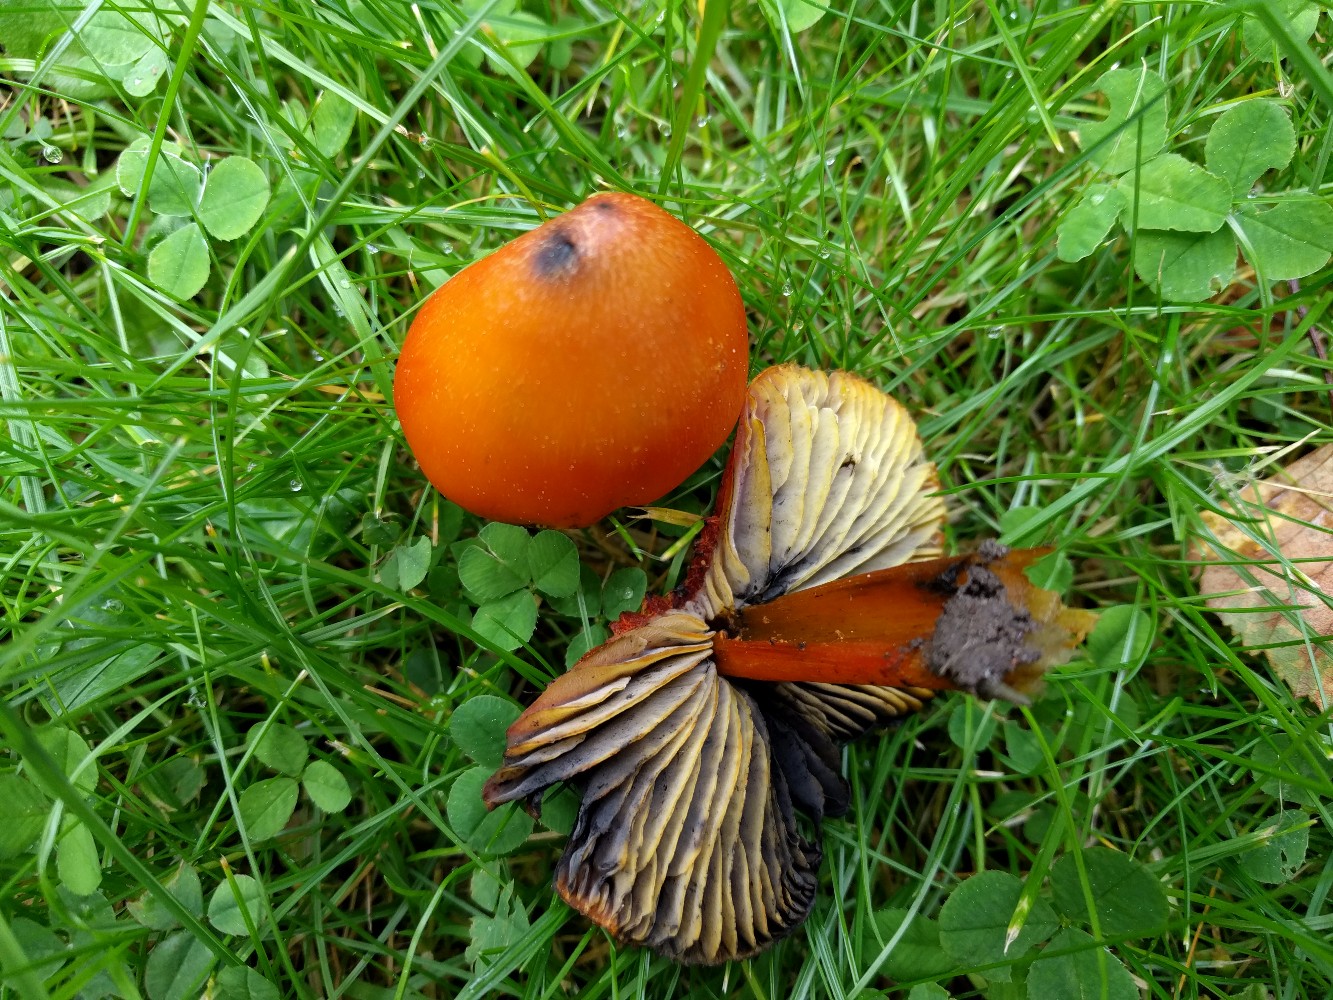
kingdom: Fungi
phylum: Basidiomycota
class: Agaricomycetes
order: Agaricales
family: Hygrophoraceae
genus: Hygrocybe
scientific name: Hygrocybe conica
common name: kegle-vokshat
